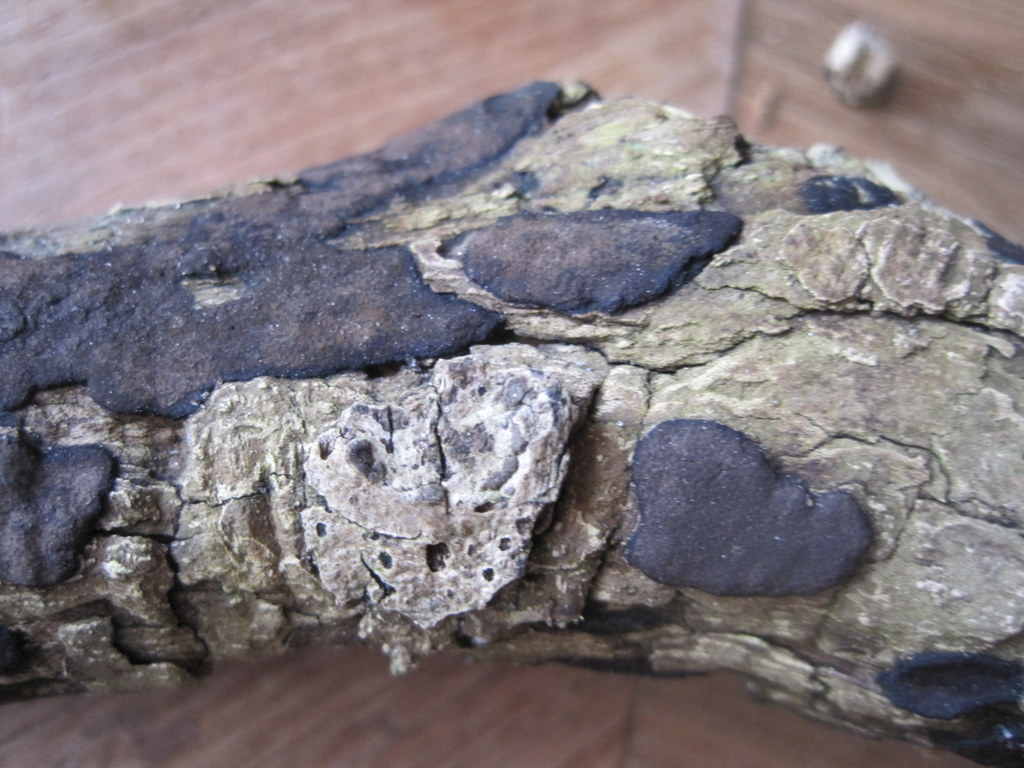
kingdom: Fungi
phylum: Ascomycota
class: Sordariomycetes
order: Xylariales
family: Hypoxylaceae
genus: Hypoxylon
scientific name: Hypoxylon petriniae
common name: nedsænket kulbær
